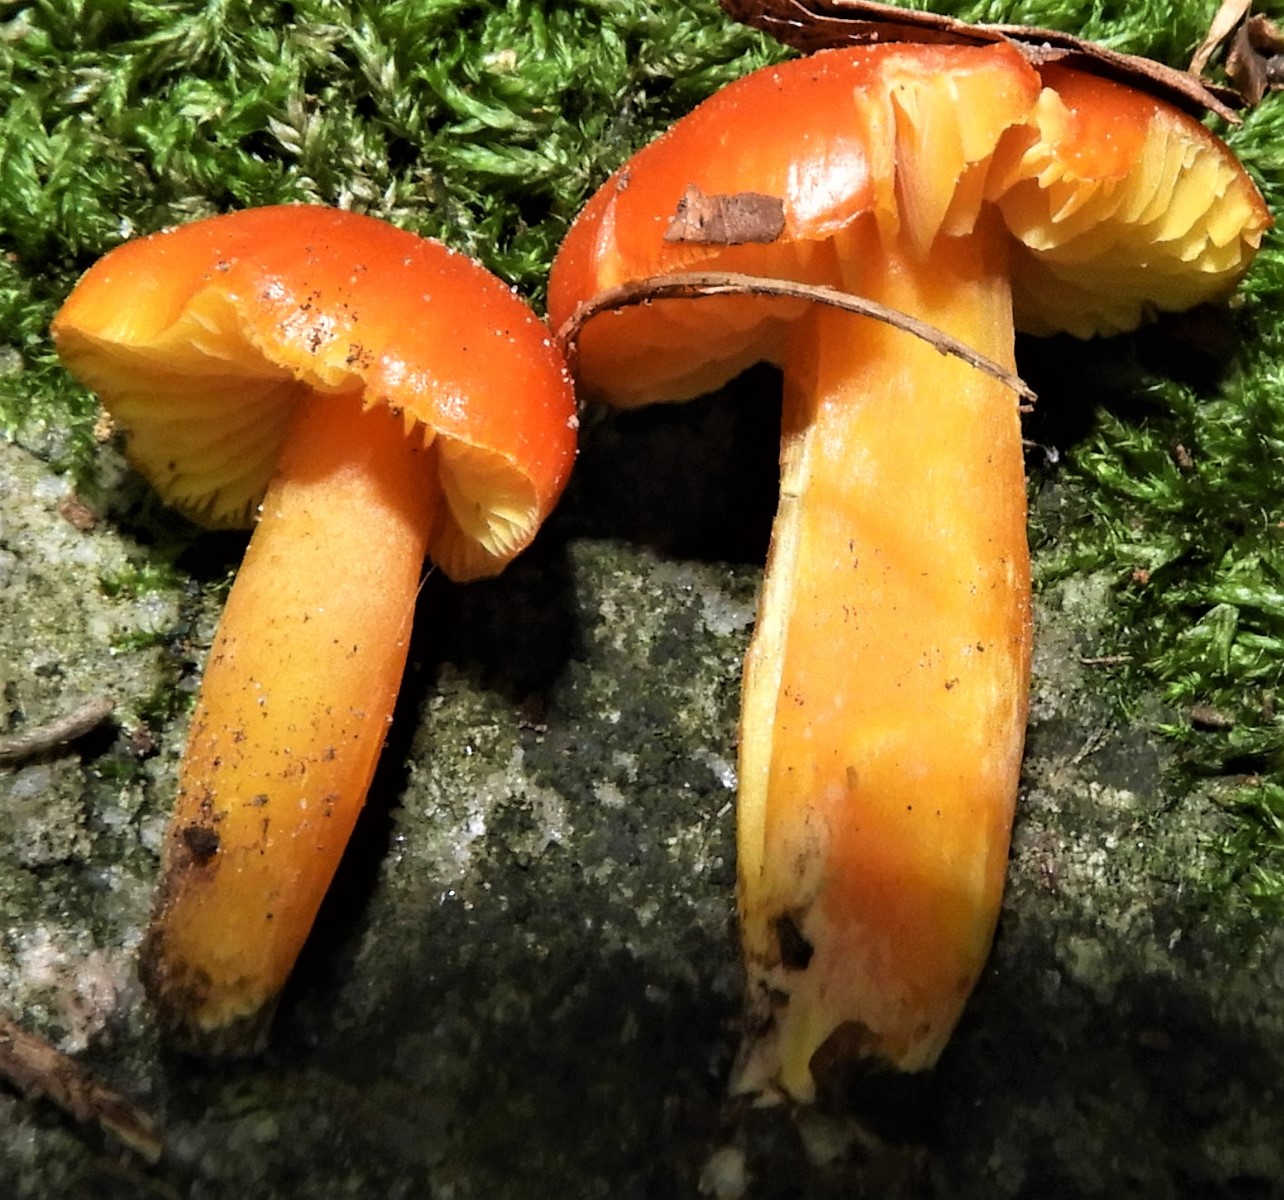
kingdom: Fungi
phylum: Basidiomycota
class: Agaricomycetes
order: Agaricales
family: Hygrophoraceae
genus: Hygrocybe
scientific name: Hygrocybe
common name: vokshat
